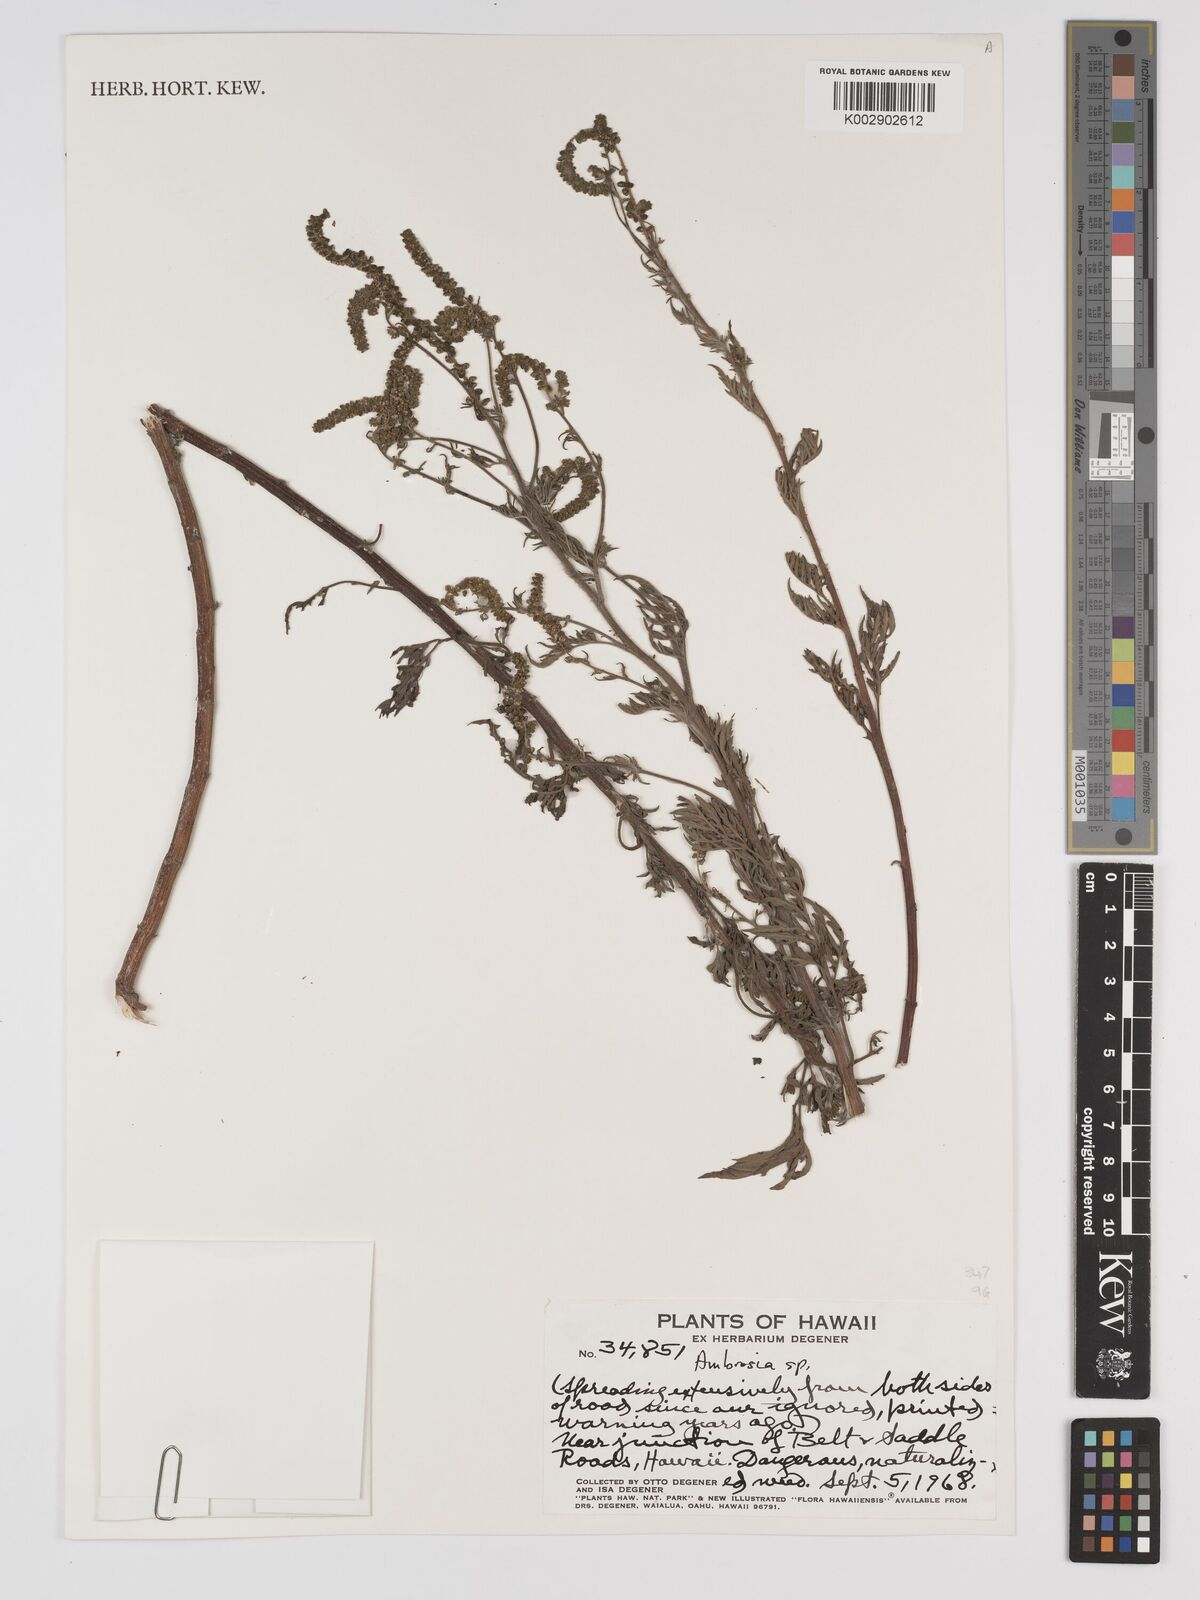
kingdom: Plantae
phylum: Tracheophyta
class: Magnoliopsida
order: Asterales
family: Asteraceae
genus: Ambrosia
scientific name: Ambrosia
